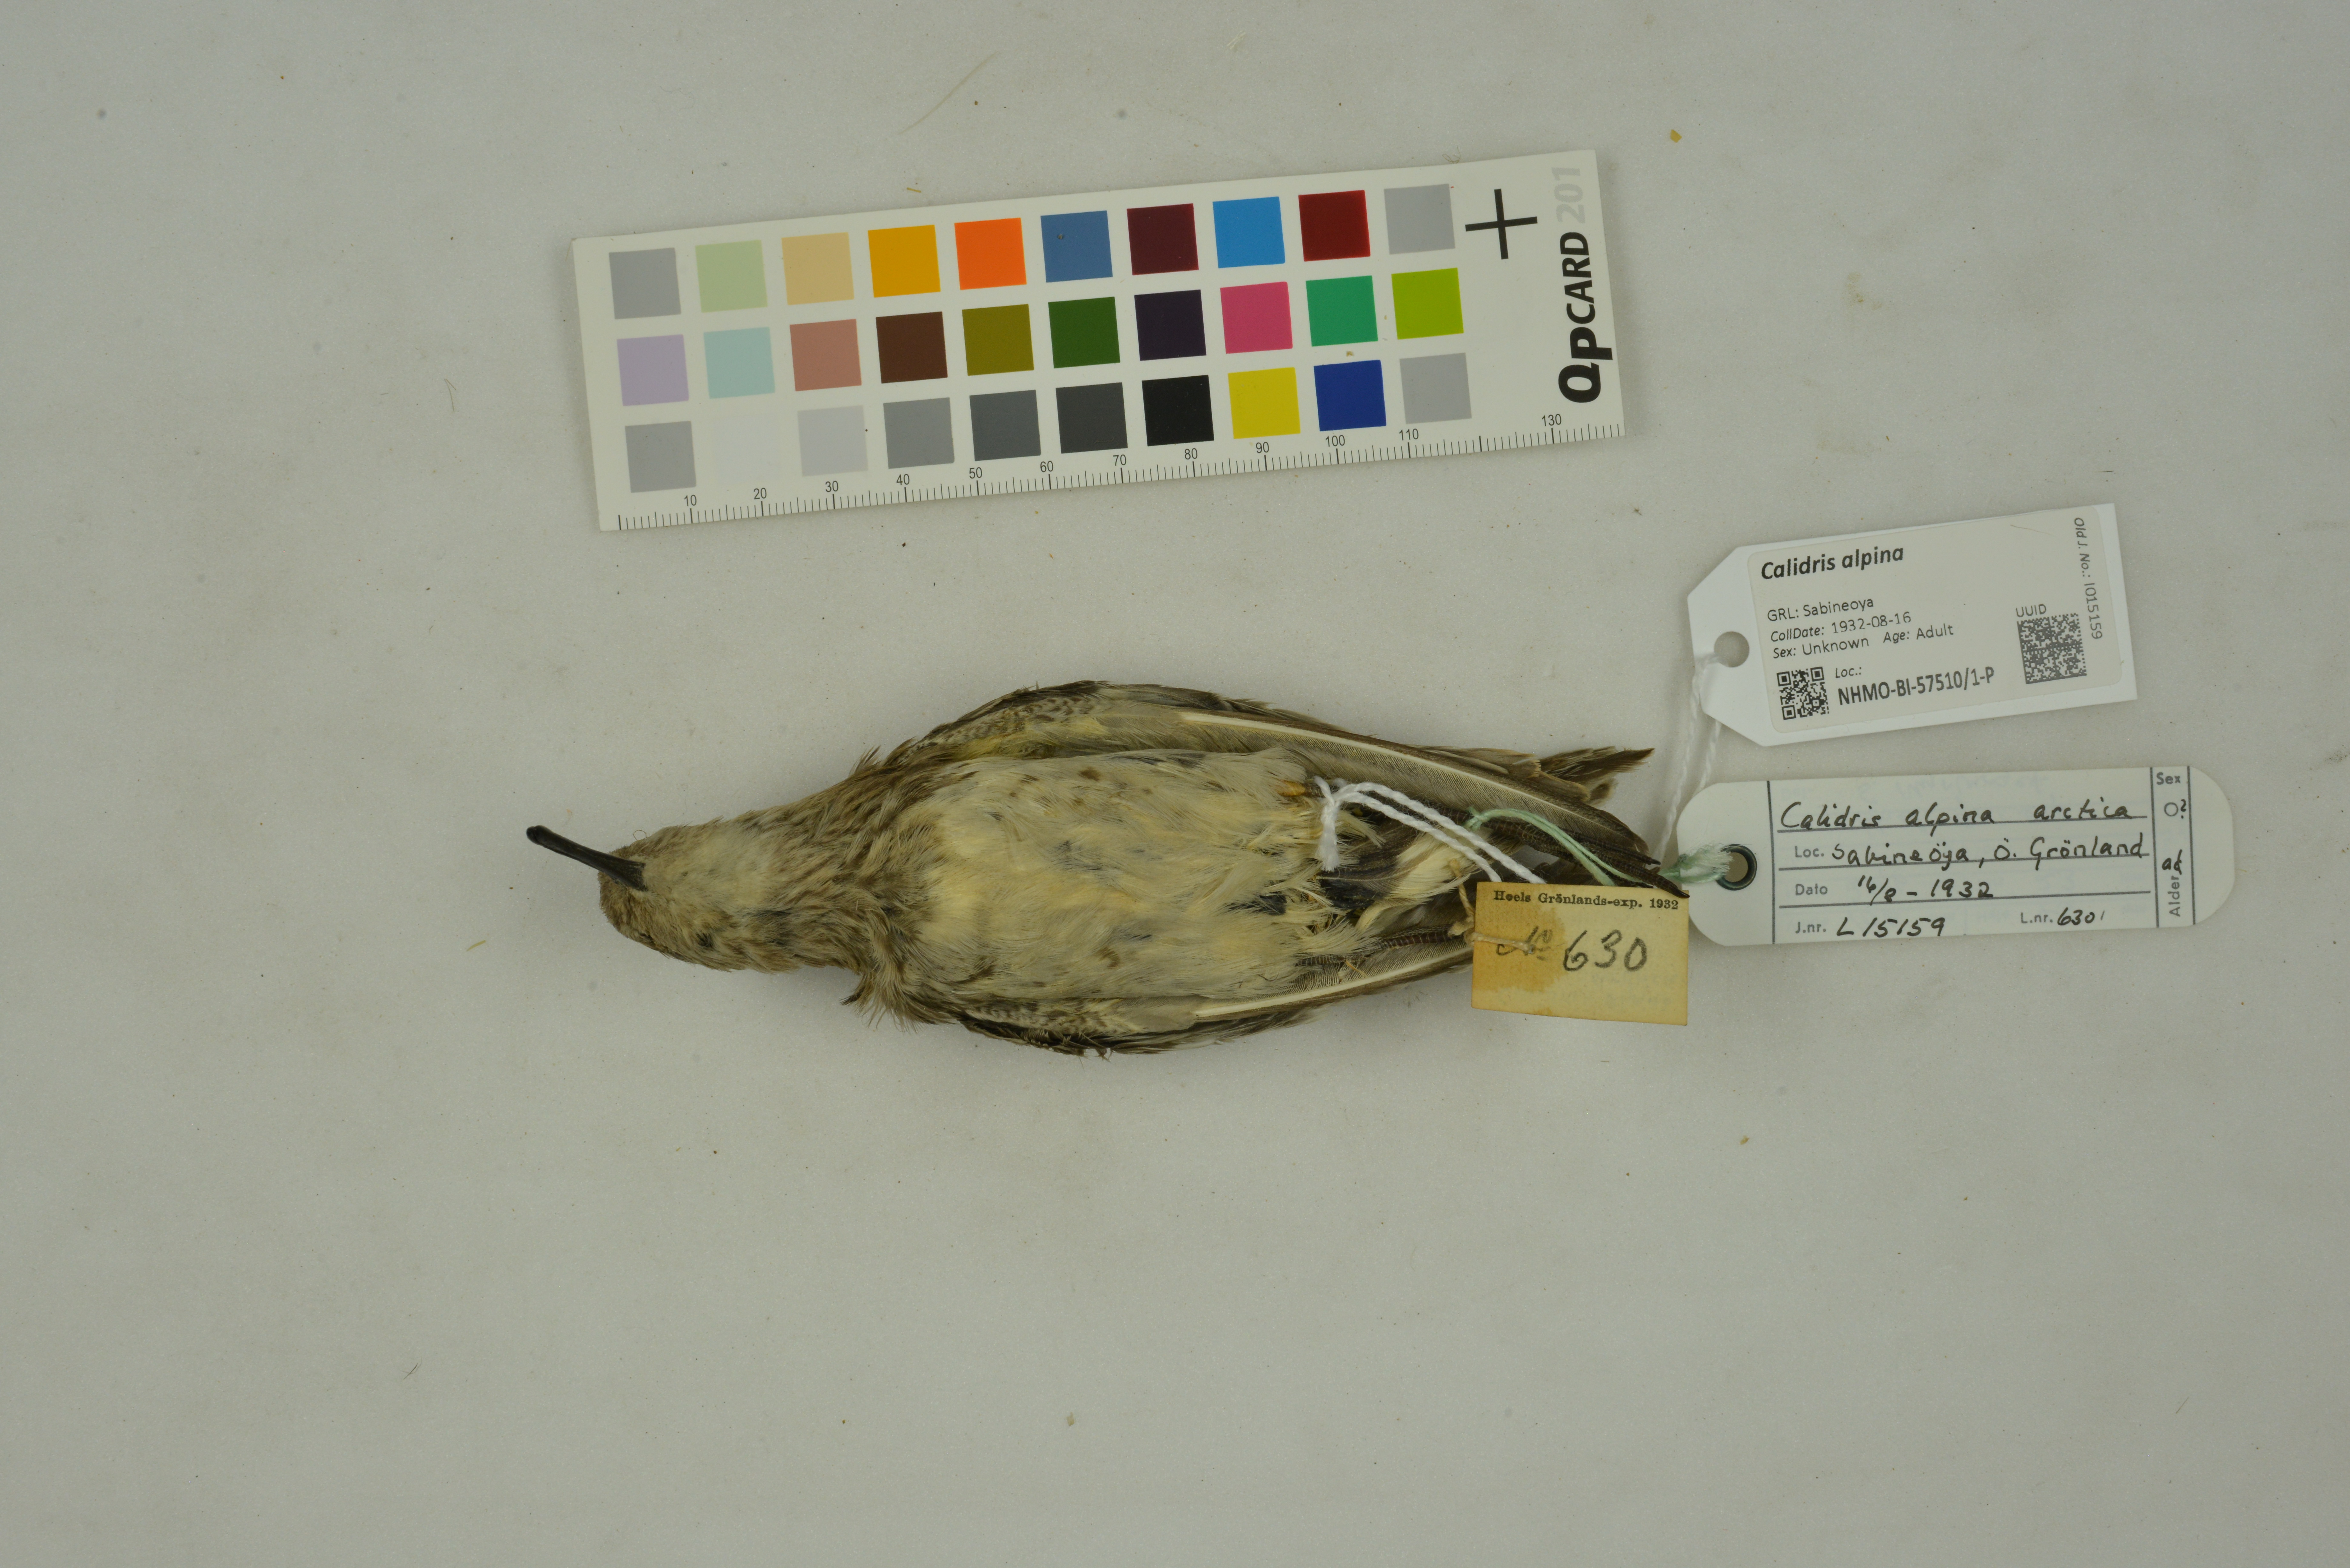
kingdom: Animalia
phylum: Chordata
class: Aves
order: Charadriiformes
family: Scolopacidae
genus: Calidris
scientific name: Calidris alpina
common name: Dunlin
